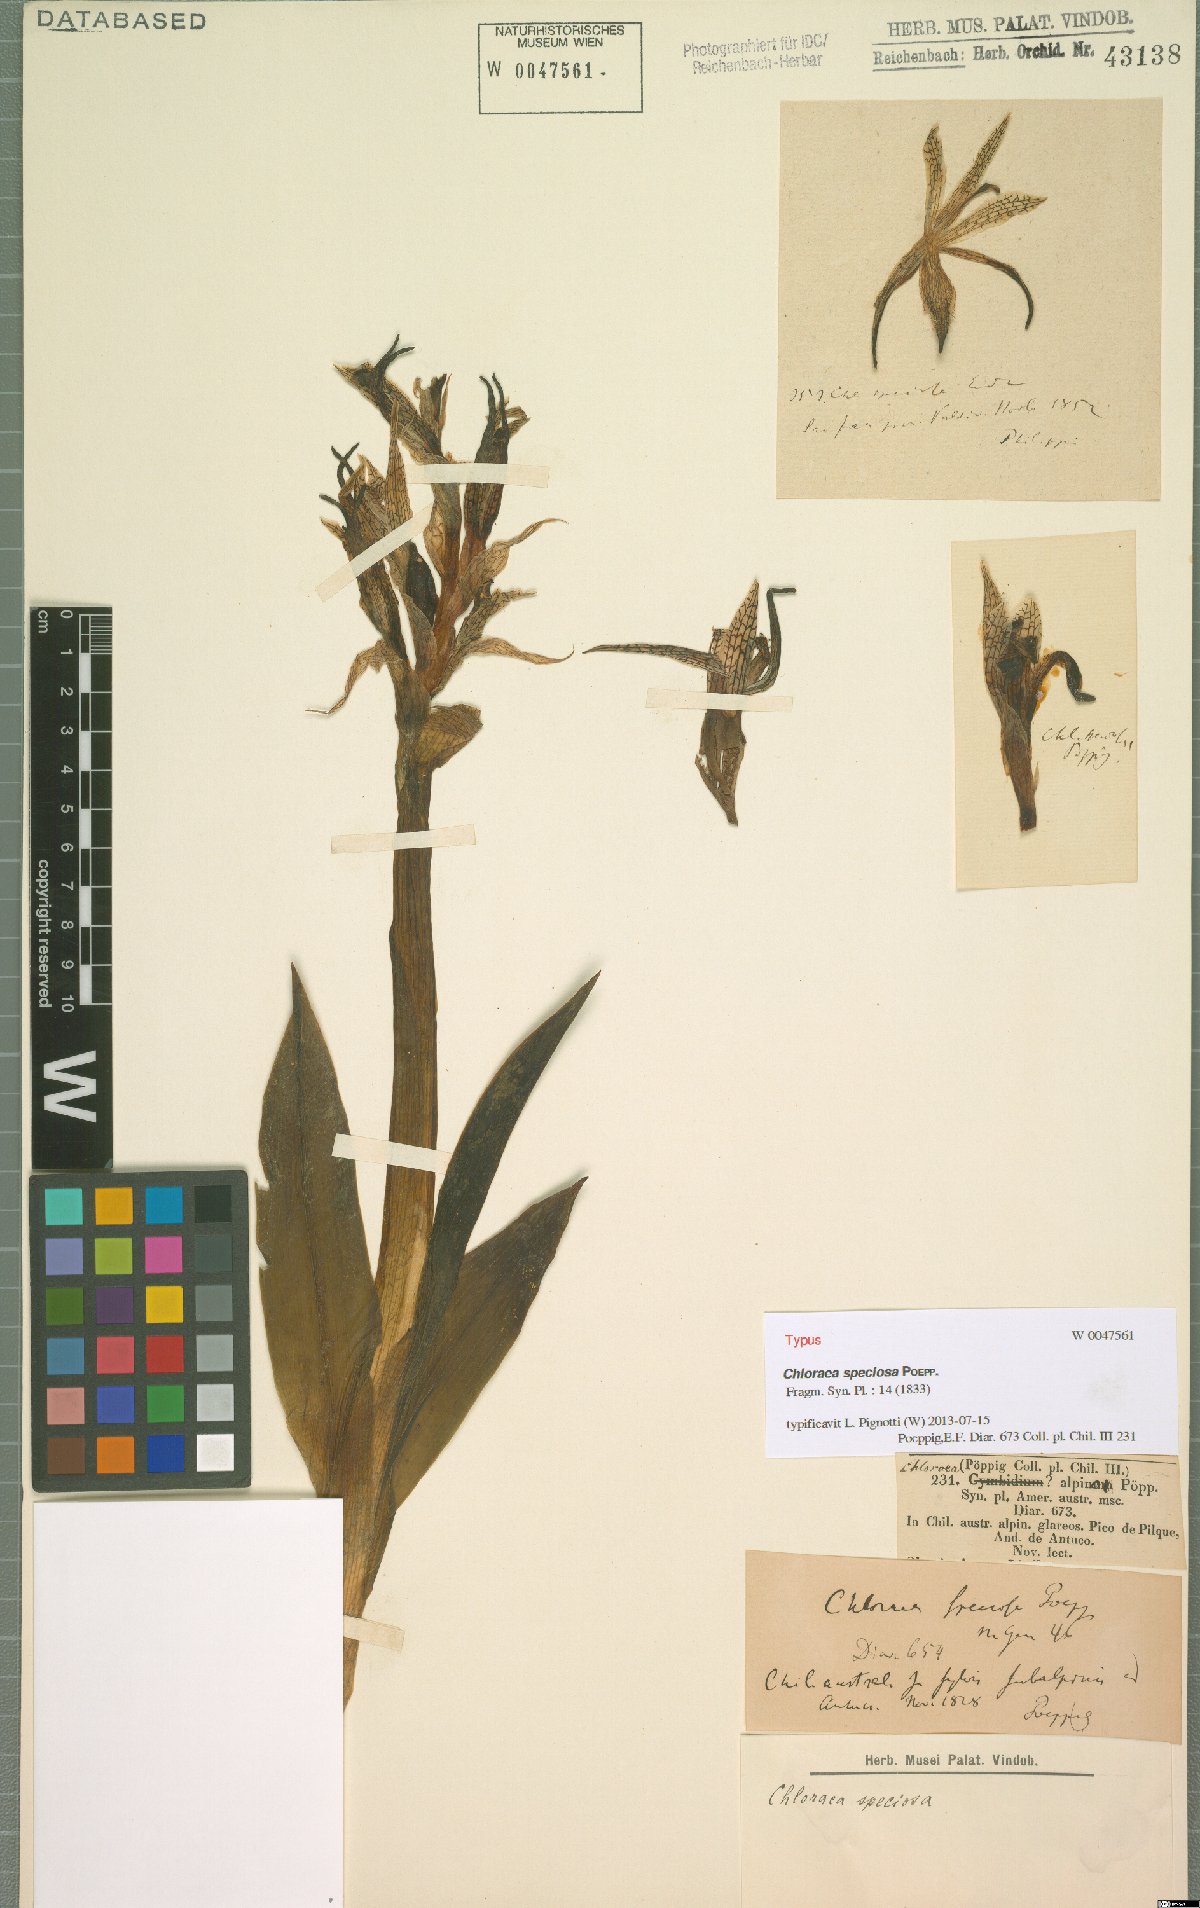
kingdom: Plantae
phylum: Tracheophyta
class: Liliopsida
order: Asparagales
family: Orchidaceae
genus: Chloraea
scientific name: Chloraea speciosa
